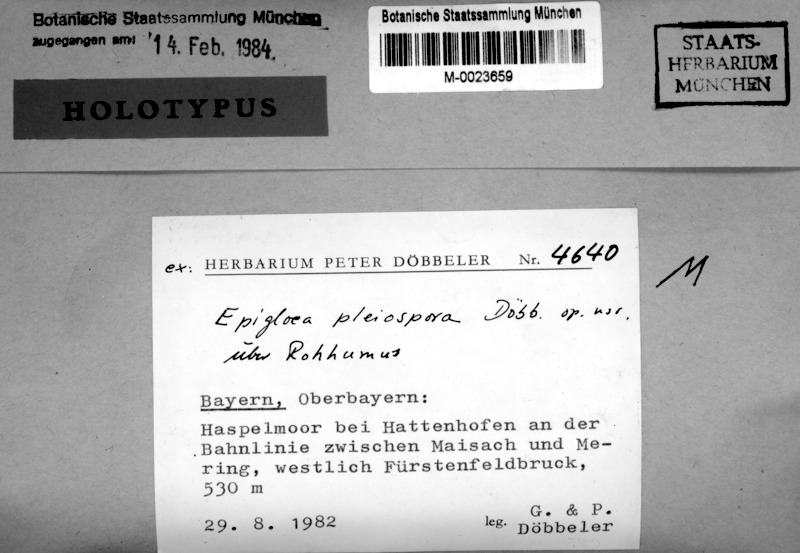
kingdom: Fungi
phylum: Ascomycota
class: Lecanoromycetes
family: Epigloeaceae
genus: Epigloea
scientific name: Epigloea pleiospora
